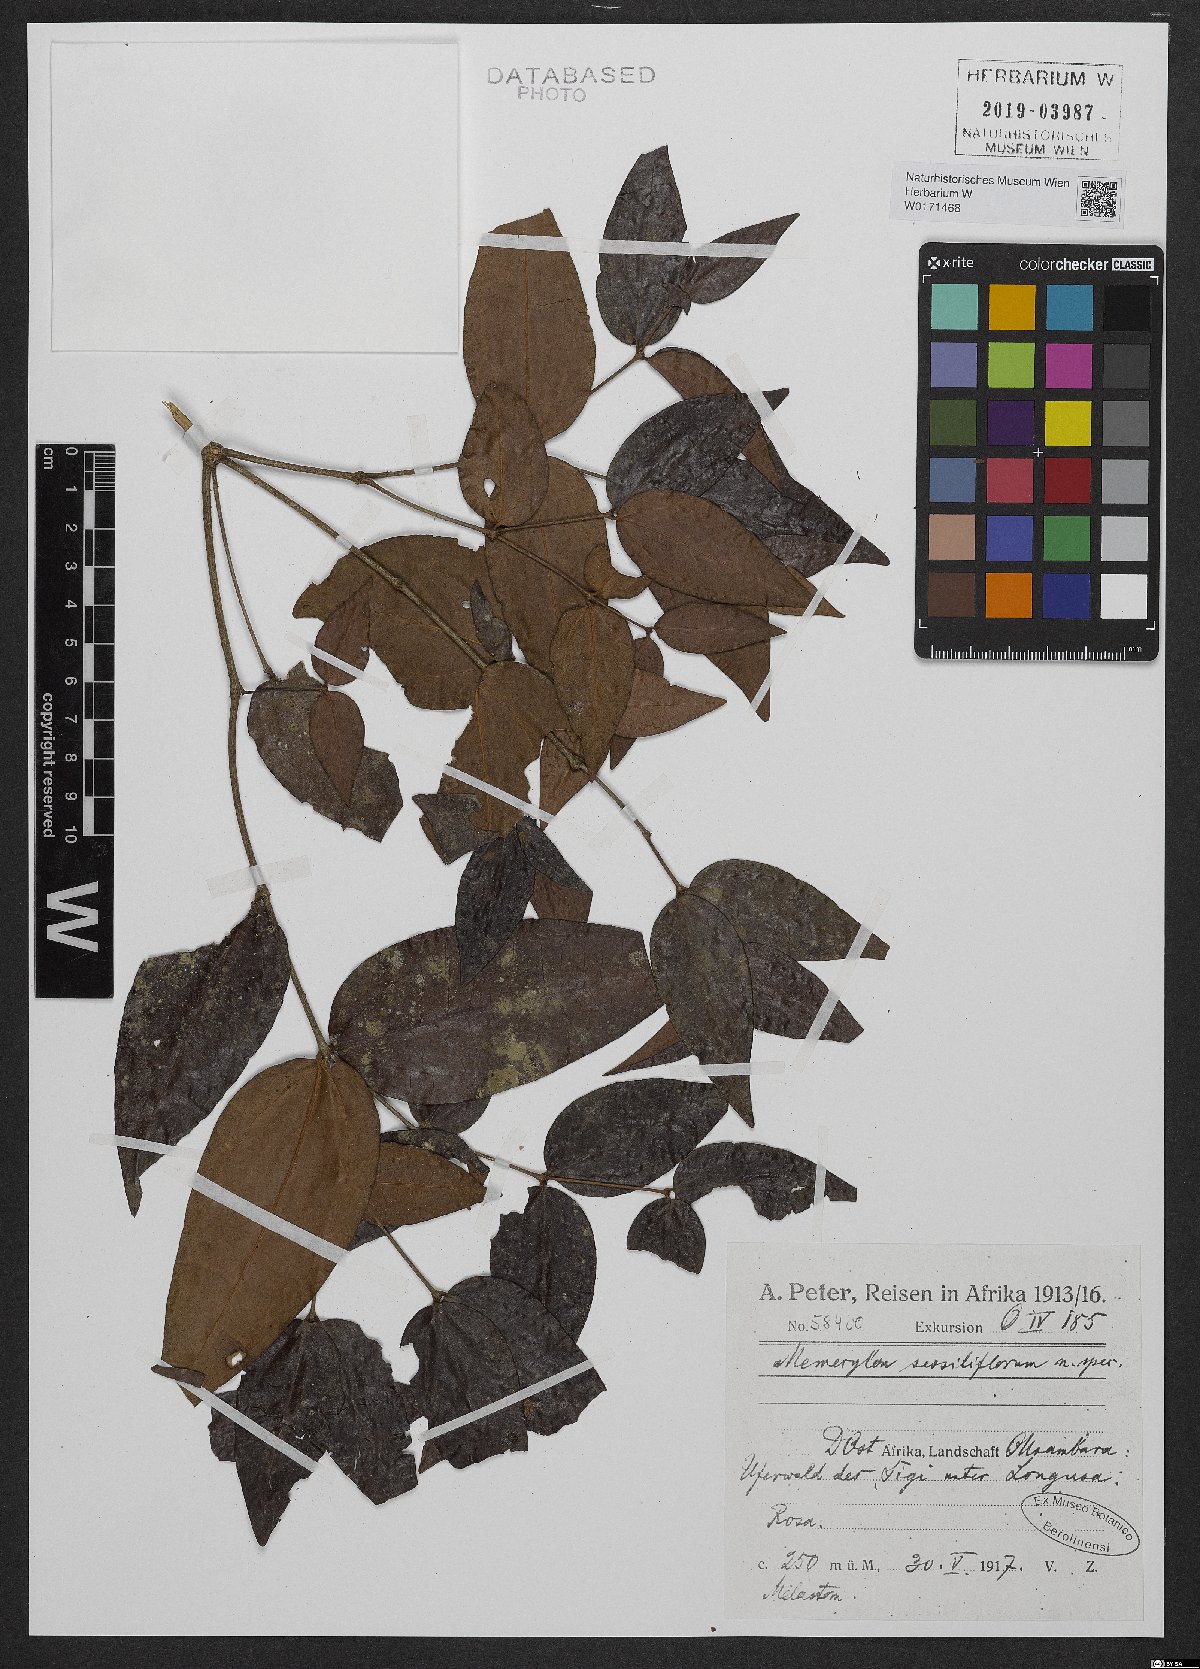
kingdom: Plantae
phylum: Tracheophyta
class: Magnoliopsida
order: Myrtales
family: Melastomataceae
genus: Memecylon
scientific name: Memecylon
